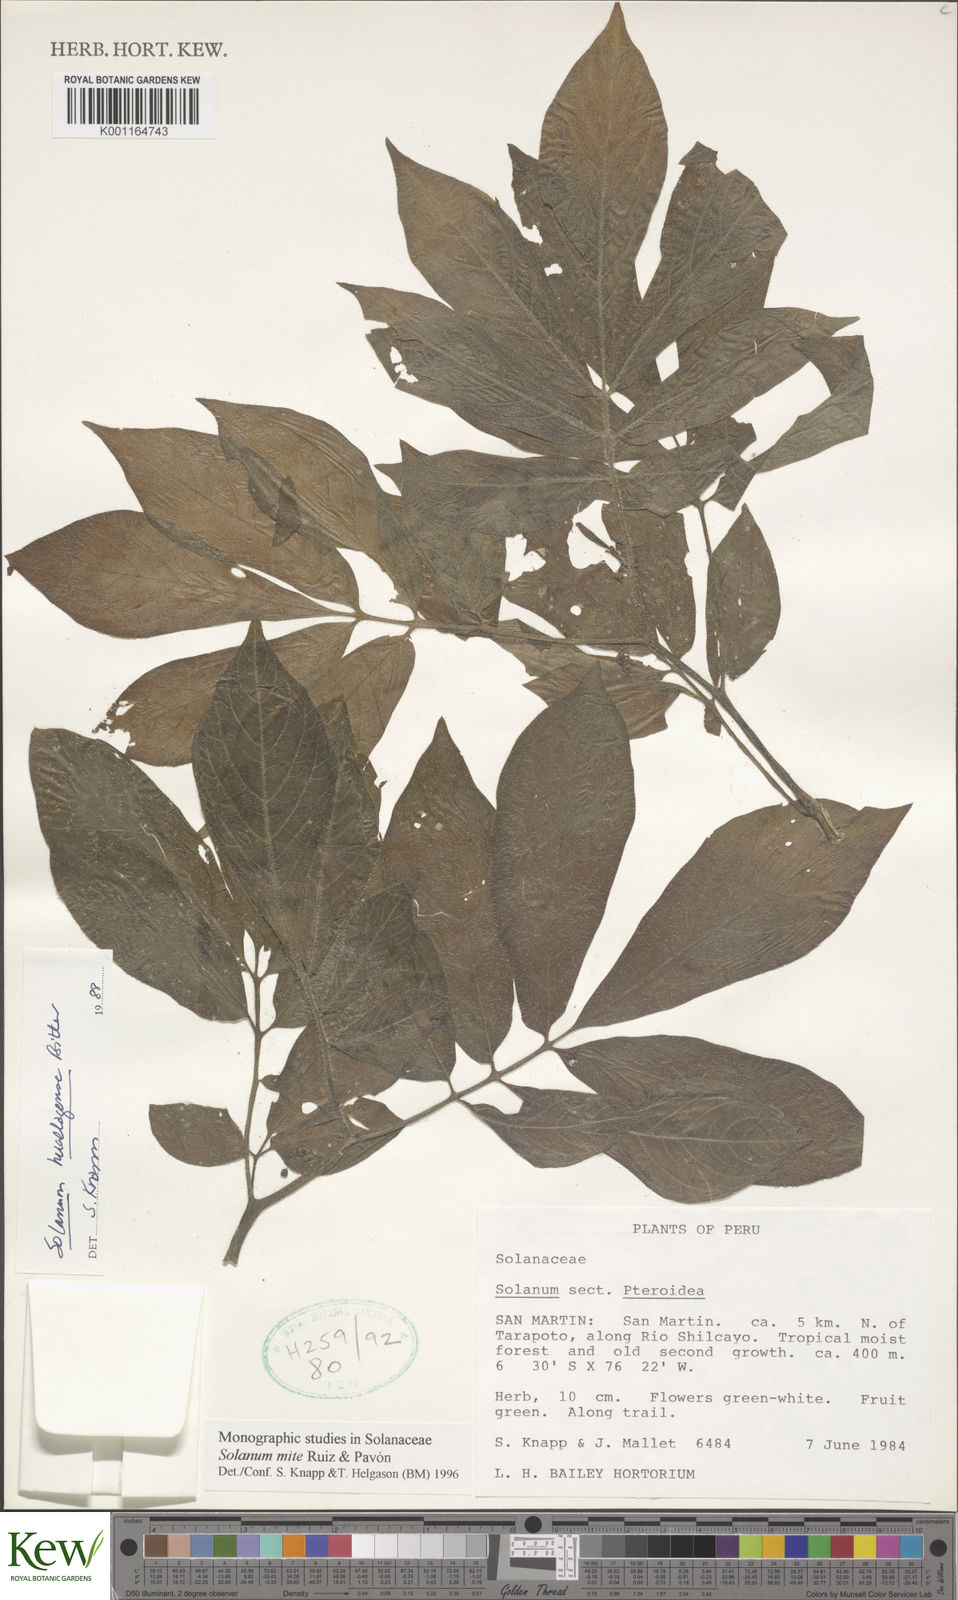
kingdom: Plantae
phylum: Tracheophyta
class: Magnoliopsida
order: Solanales
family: Solanaceae
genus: Solanum
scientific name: Solanum mite
